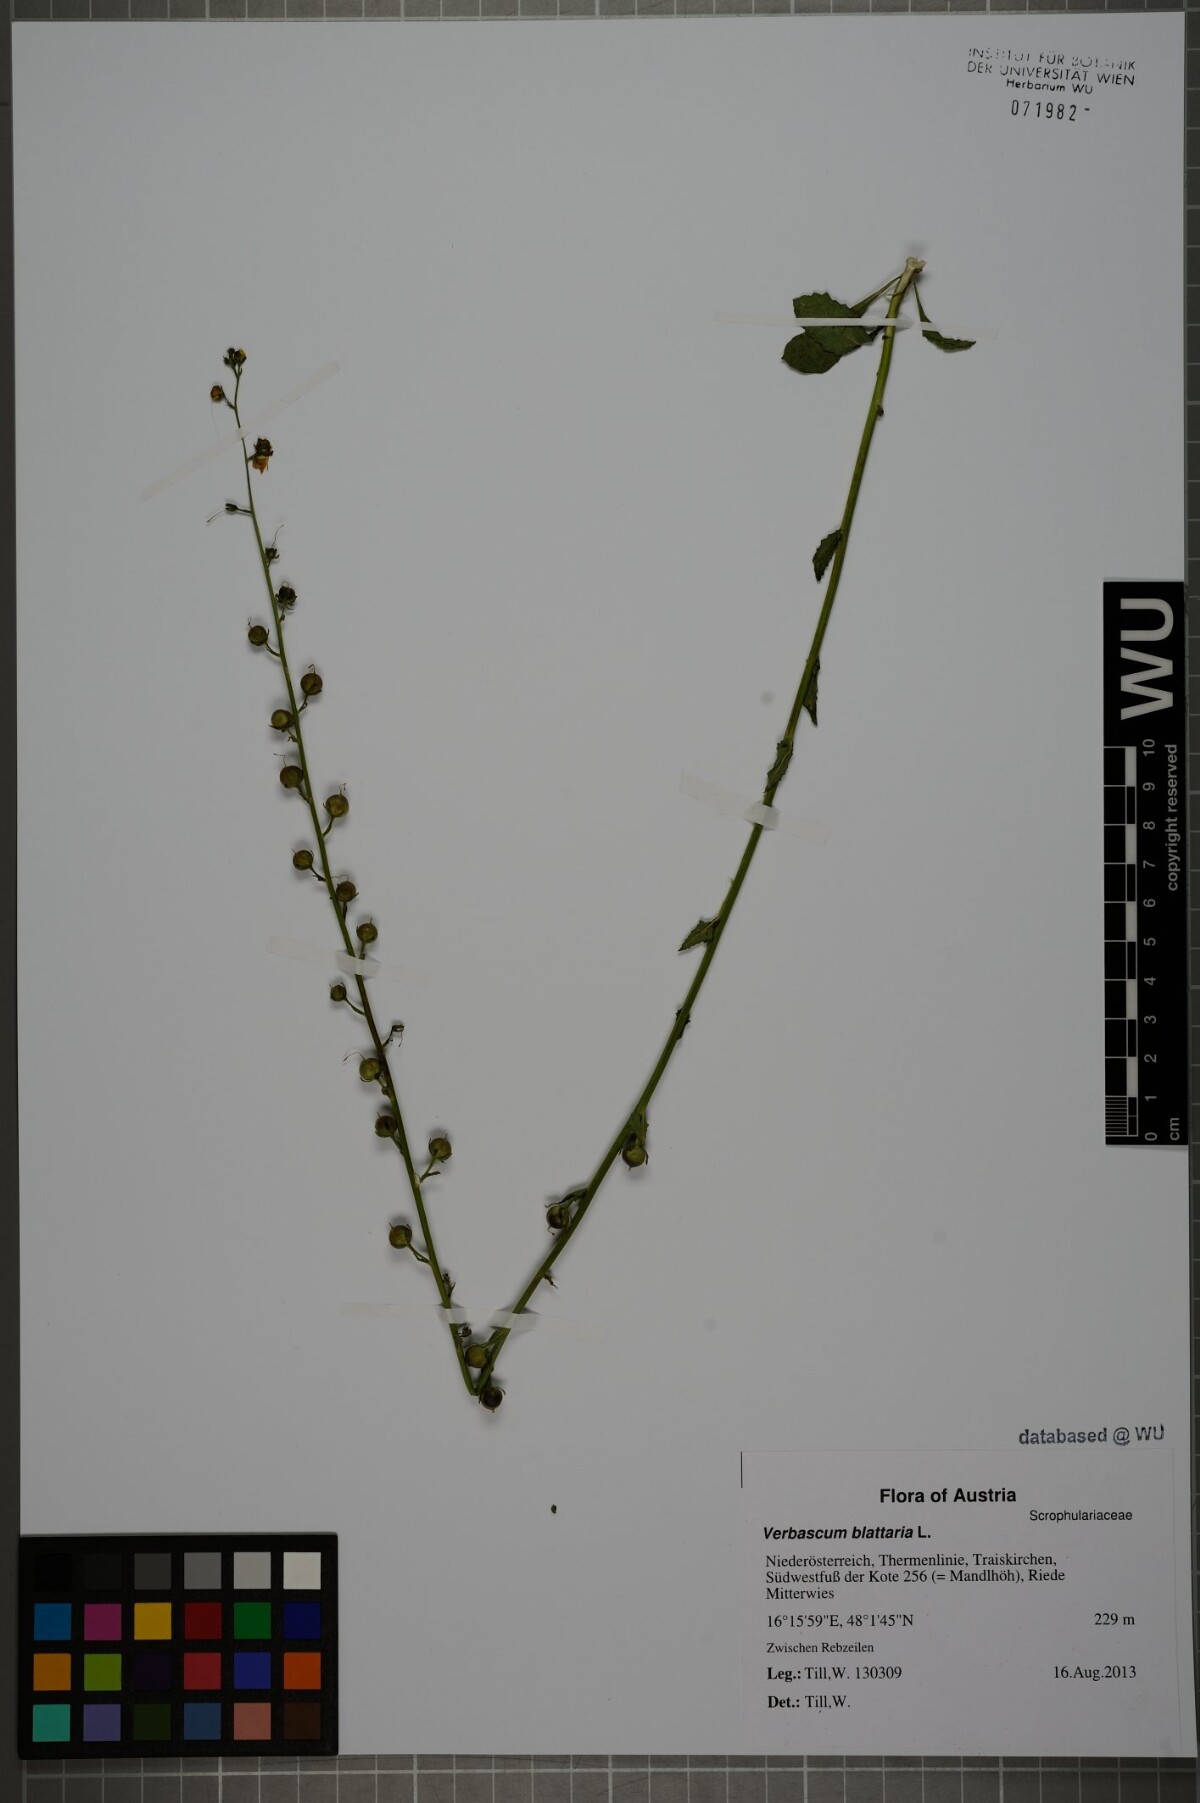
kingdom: Plantae
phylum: Tracheophyta
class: Magnoliopsida
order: Lamiales
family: Scrophulariaceae
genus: Verbascum
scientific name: Verbascum blattaria
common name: Moth mullein
